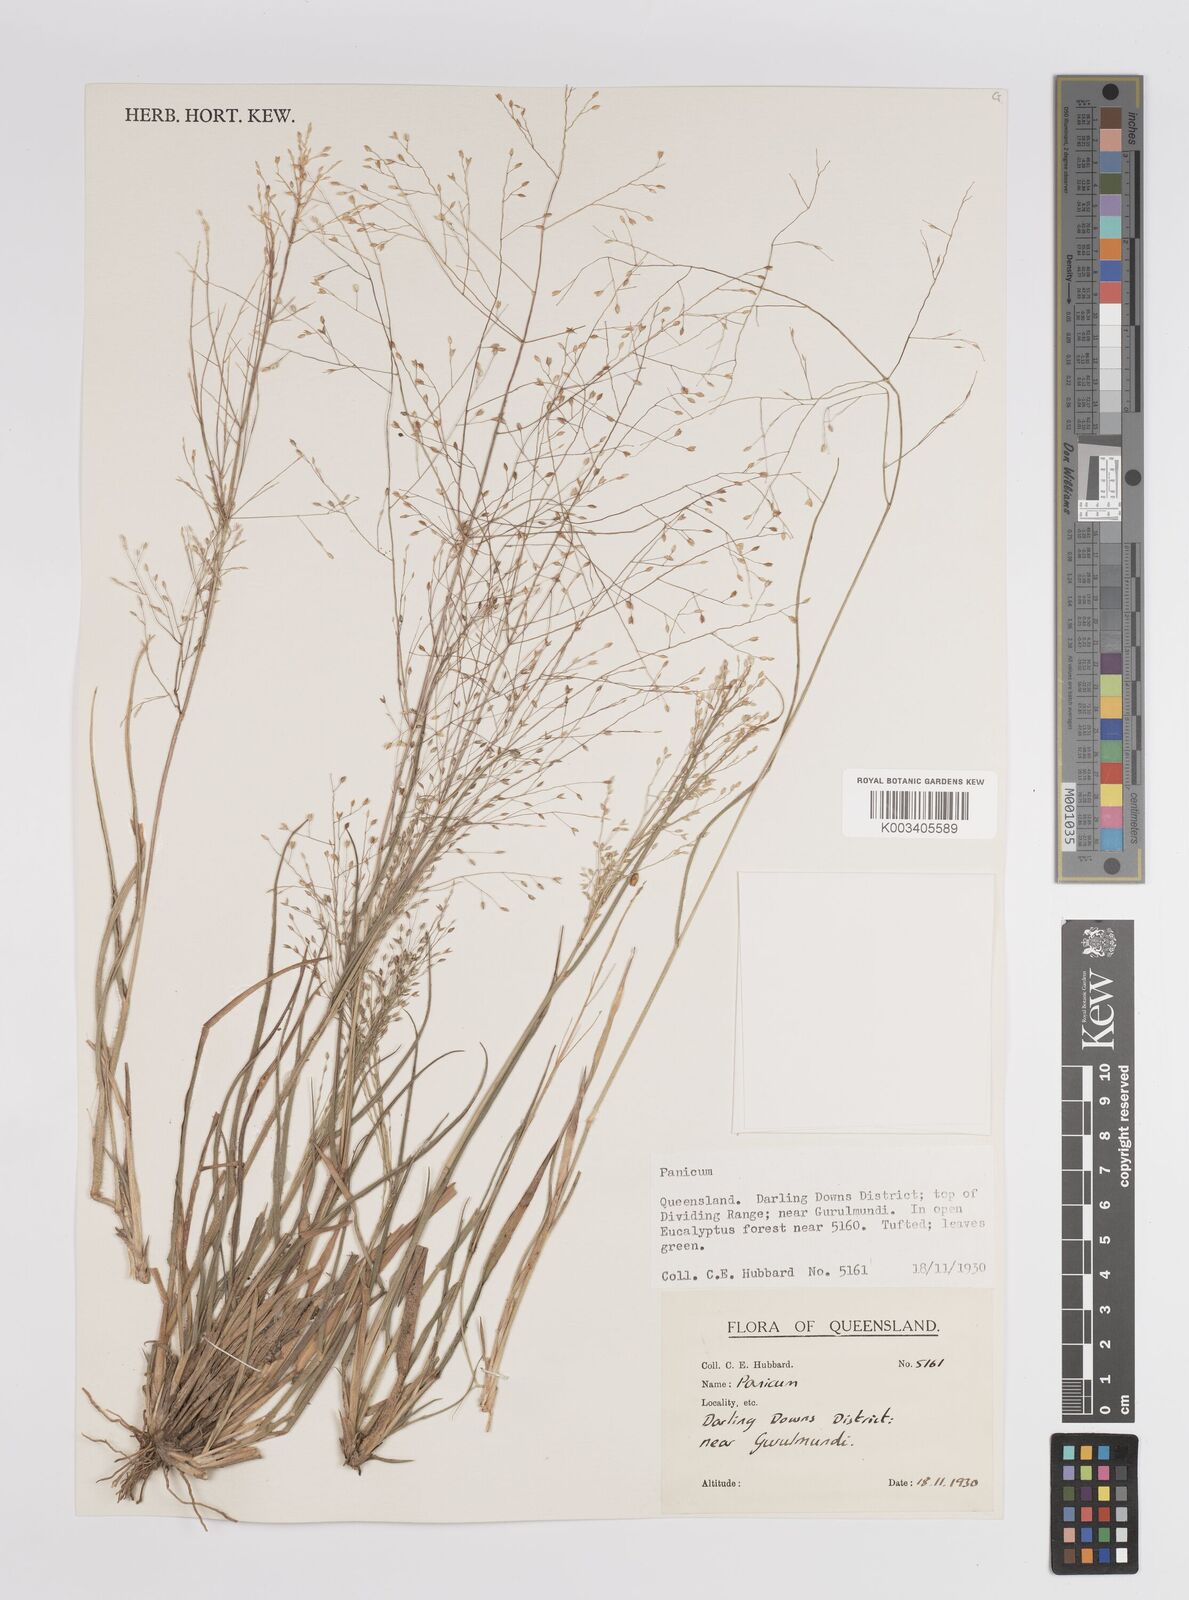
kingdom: Plantae
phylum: Tracheophyta
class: Liliopsida
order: Poales
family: Poaceae
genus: Panicum
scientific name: Panicum
